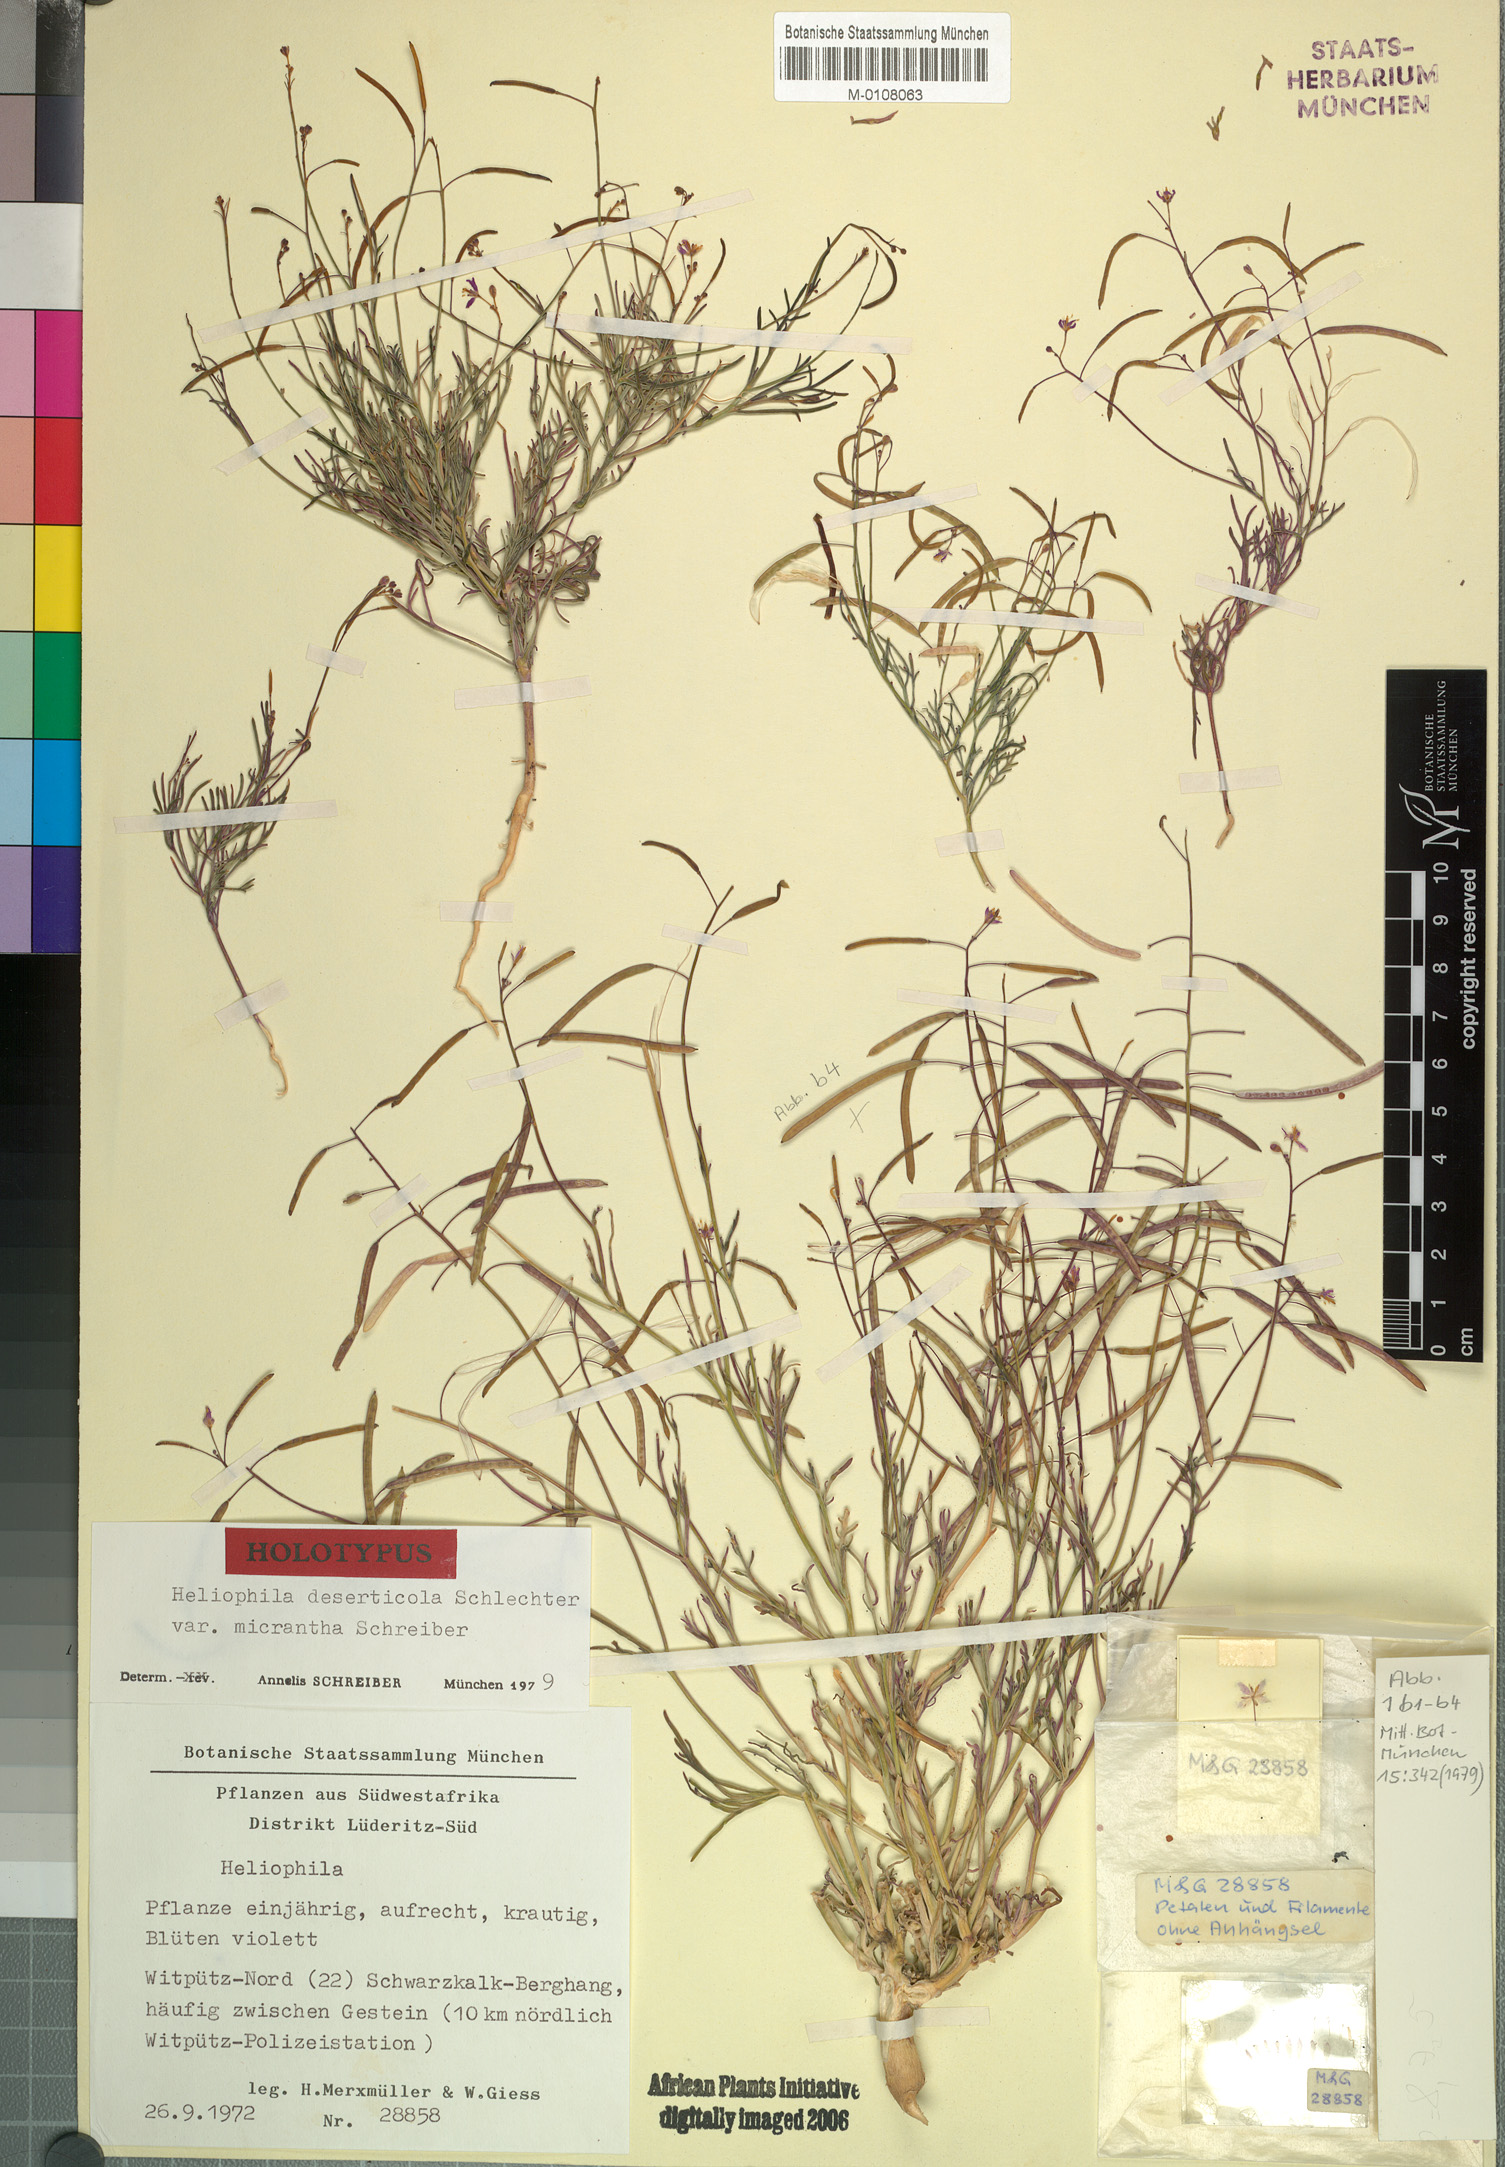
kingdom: Plantae
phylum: Tracheophyta
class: Magnoliopsida
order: Brassicales
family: Brassicaceae
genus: Heliophila
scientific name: Heliophila deserticola
